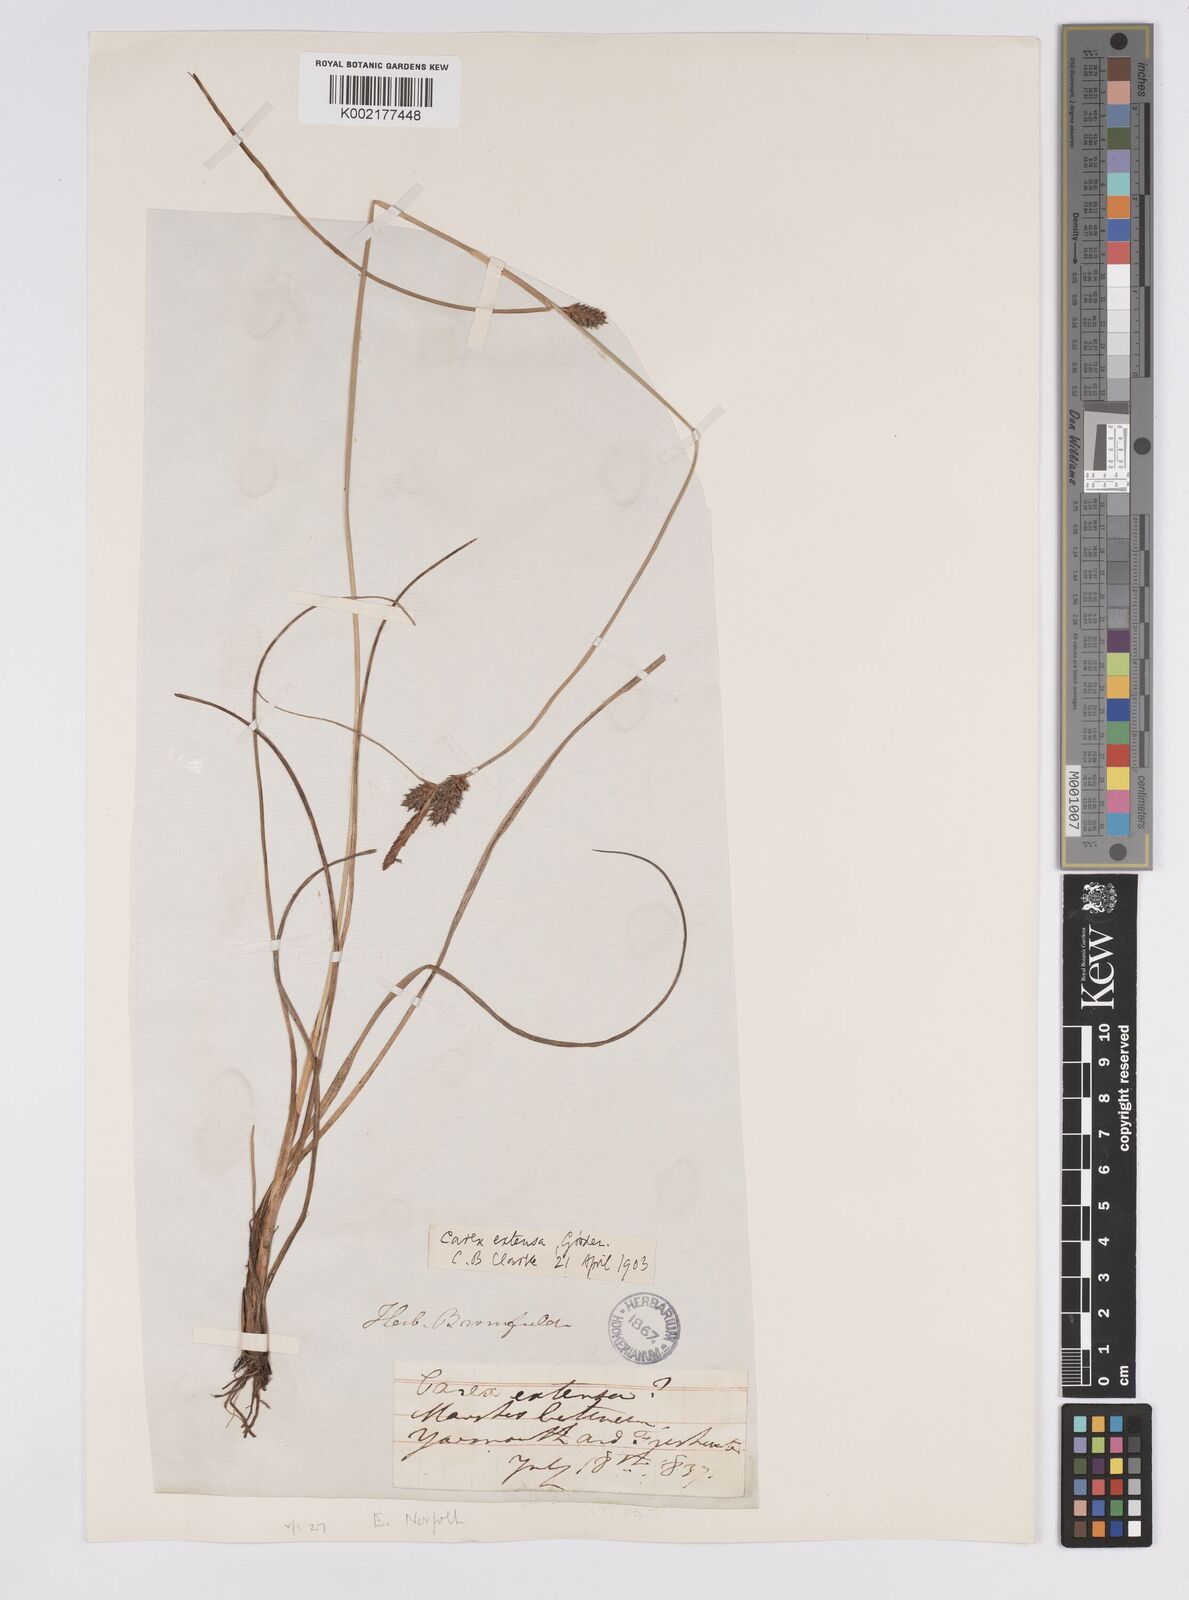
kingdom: Plantae
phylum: Tracheophyta
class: Liliopsida
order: Poales
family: Cyperaceae
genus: Carex
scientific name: Carex extensa
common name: Long-bracted sedge
